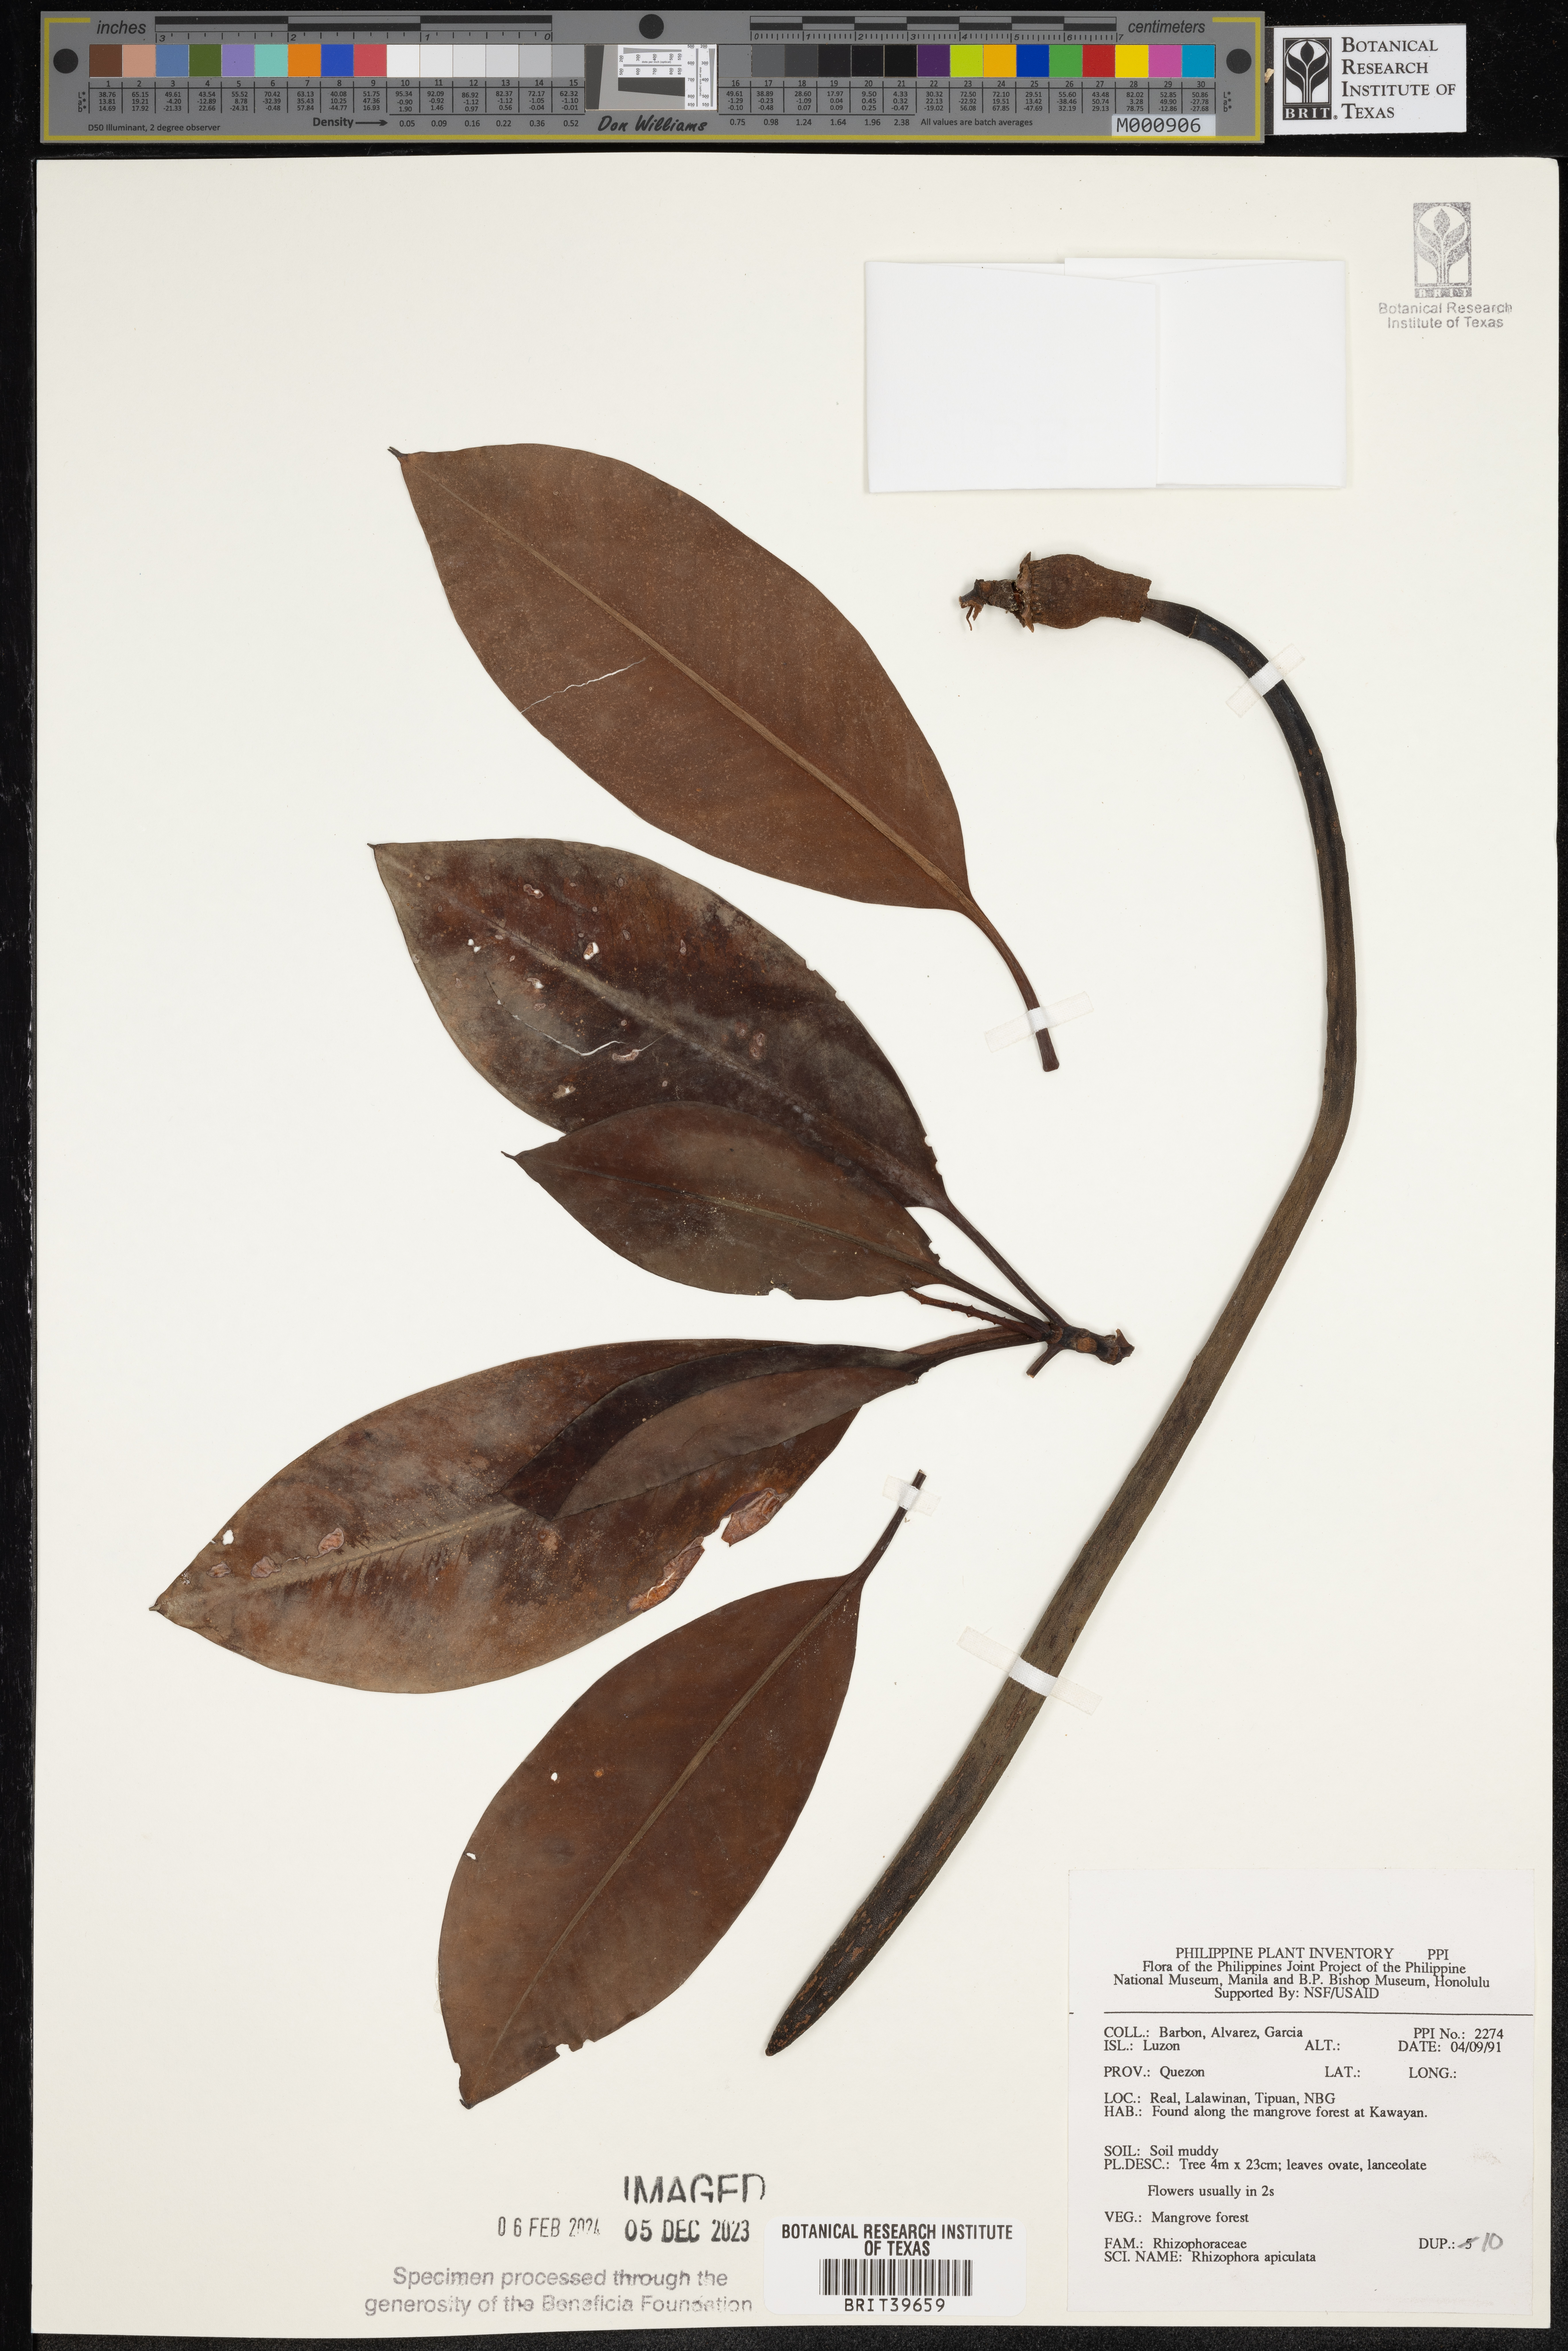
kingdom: Plantae
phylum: Tracheophyta
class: Magnoliopsida
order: Malpighiales
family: Rhizophoraceae
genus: Rhizophora
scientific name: Rhizophora apiculata
